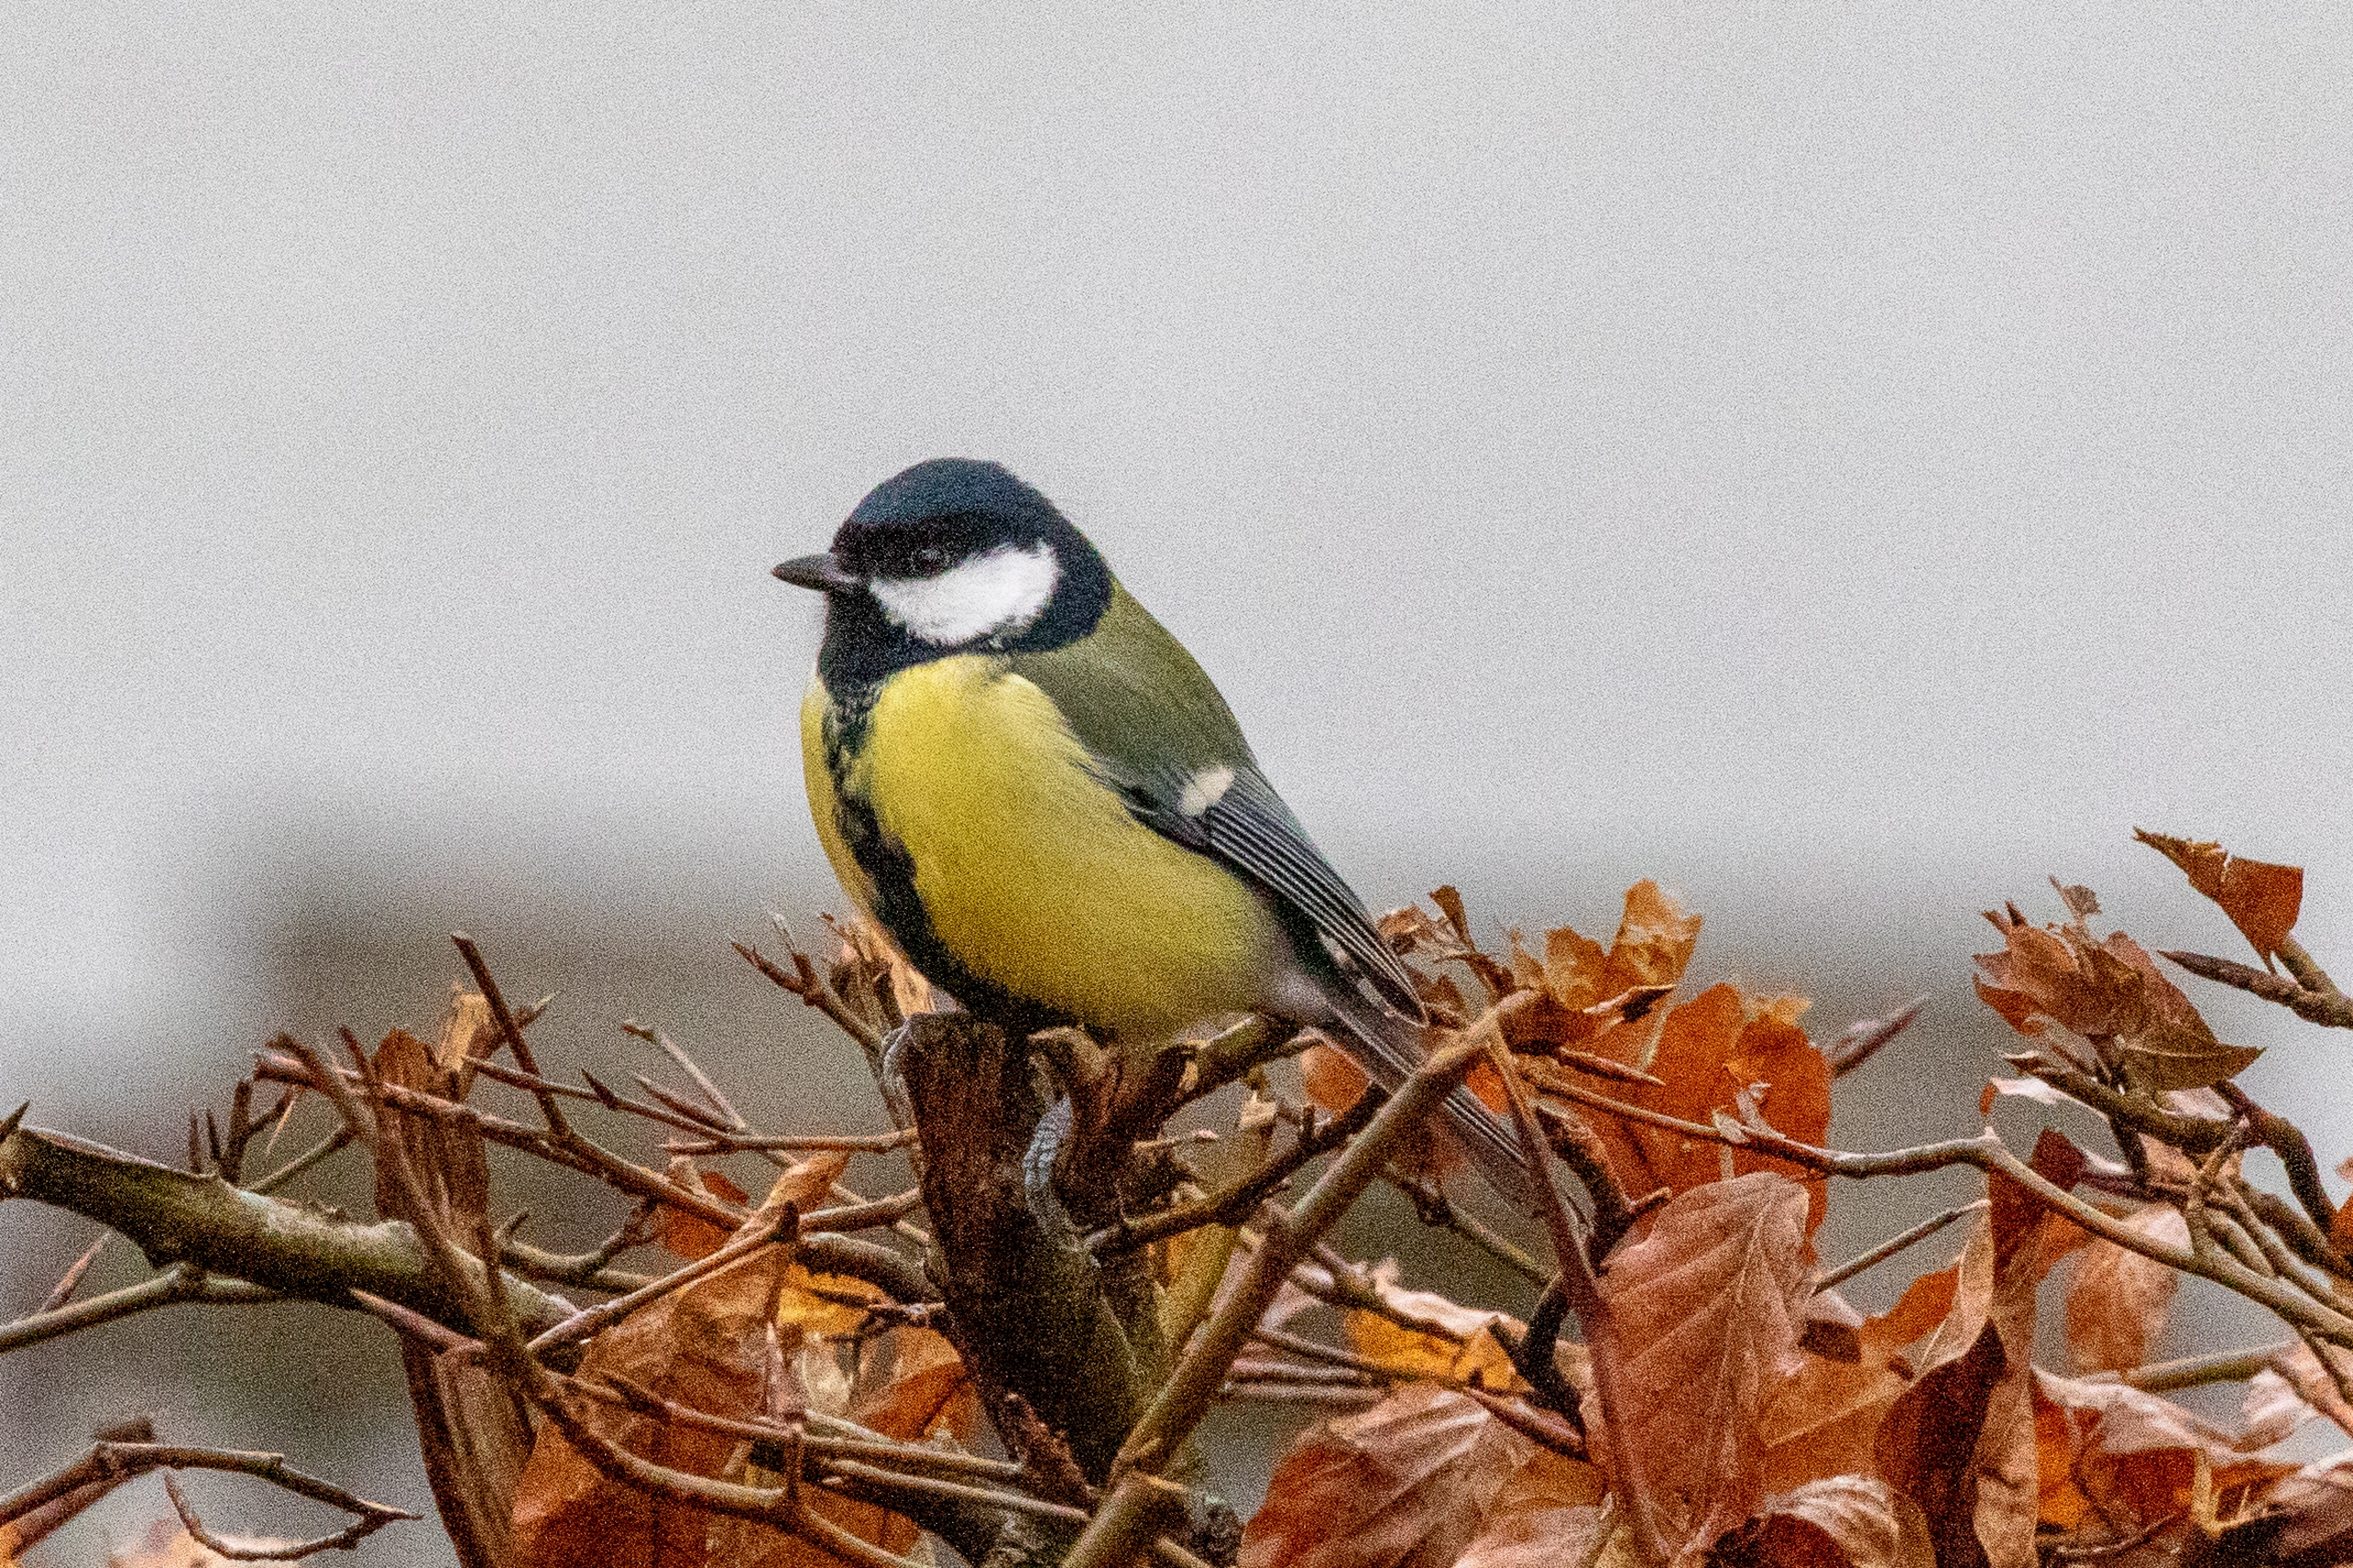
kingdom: Animalia
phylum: Chordata
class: Aves
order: Passeriformes
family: Paridae
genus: Parus
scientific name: Parus major
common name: Musvit
